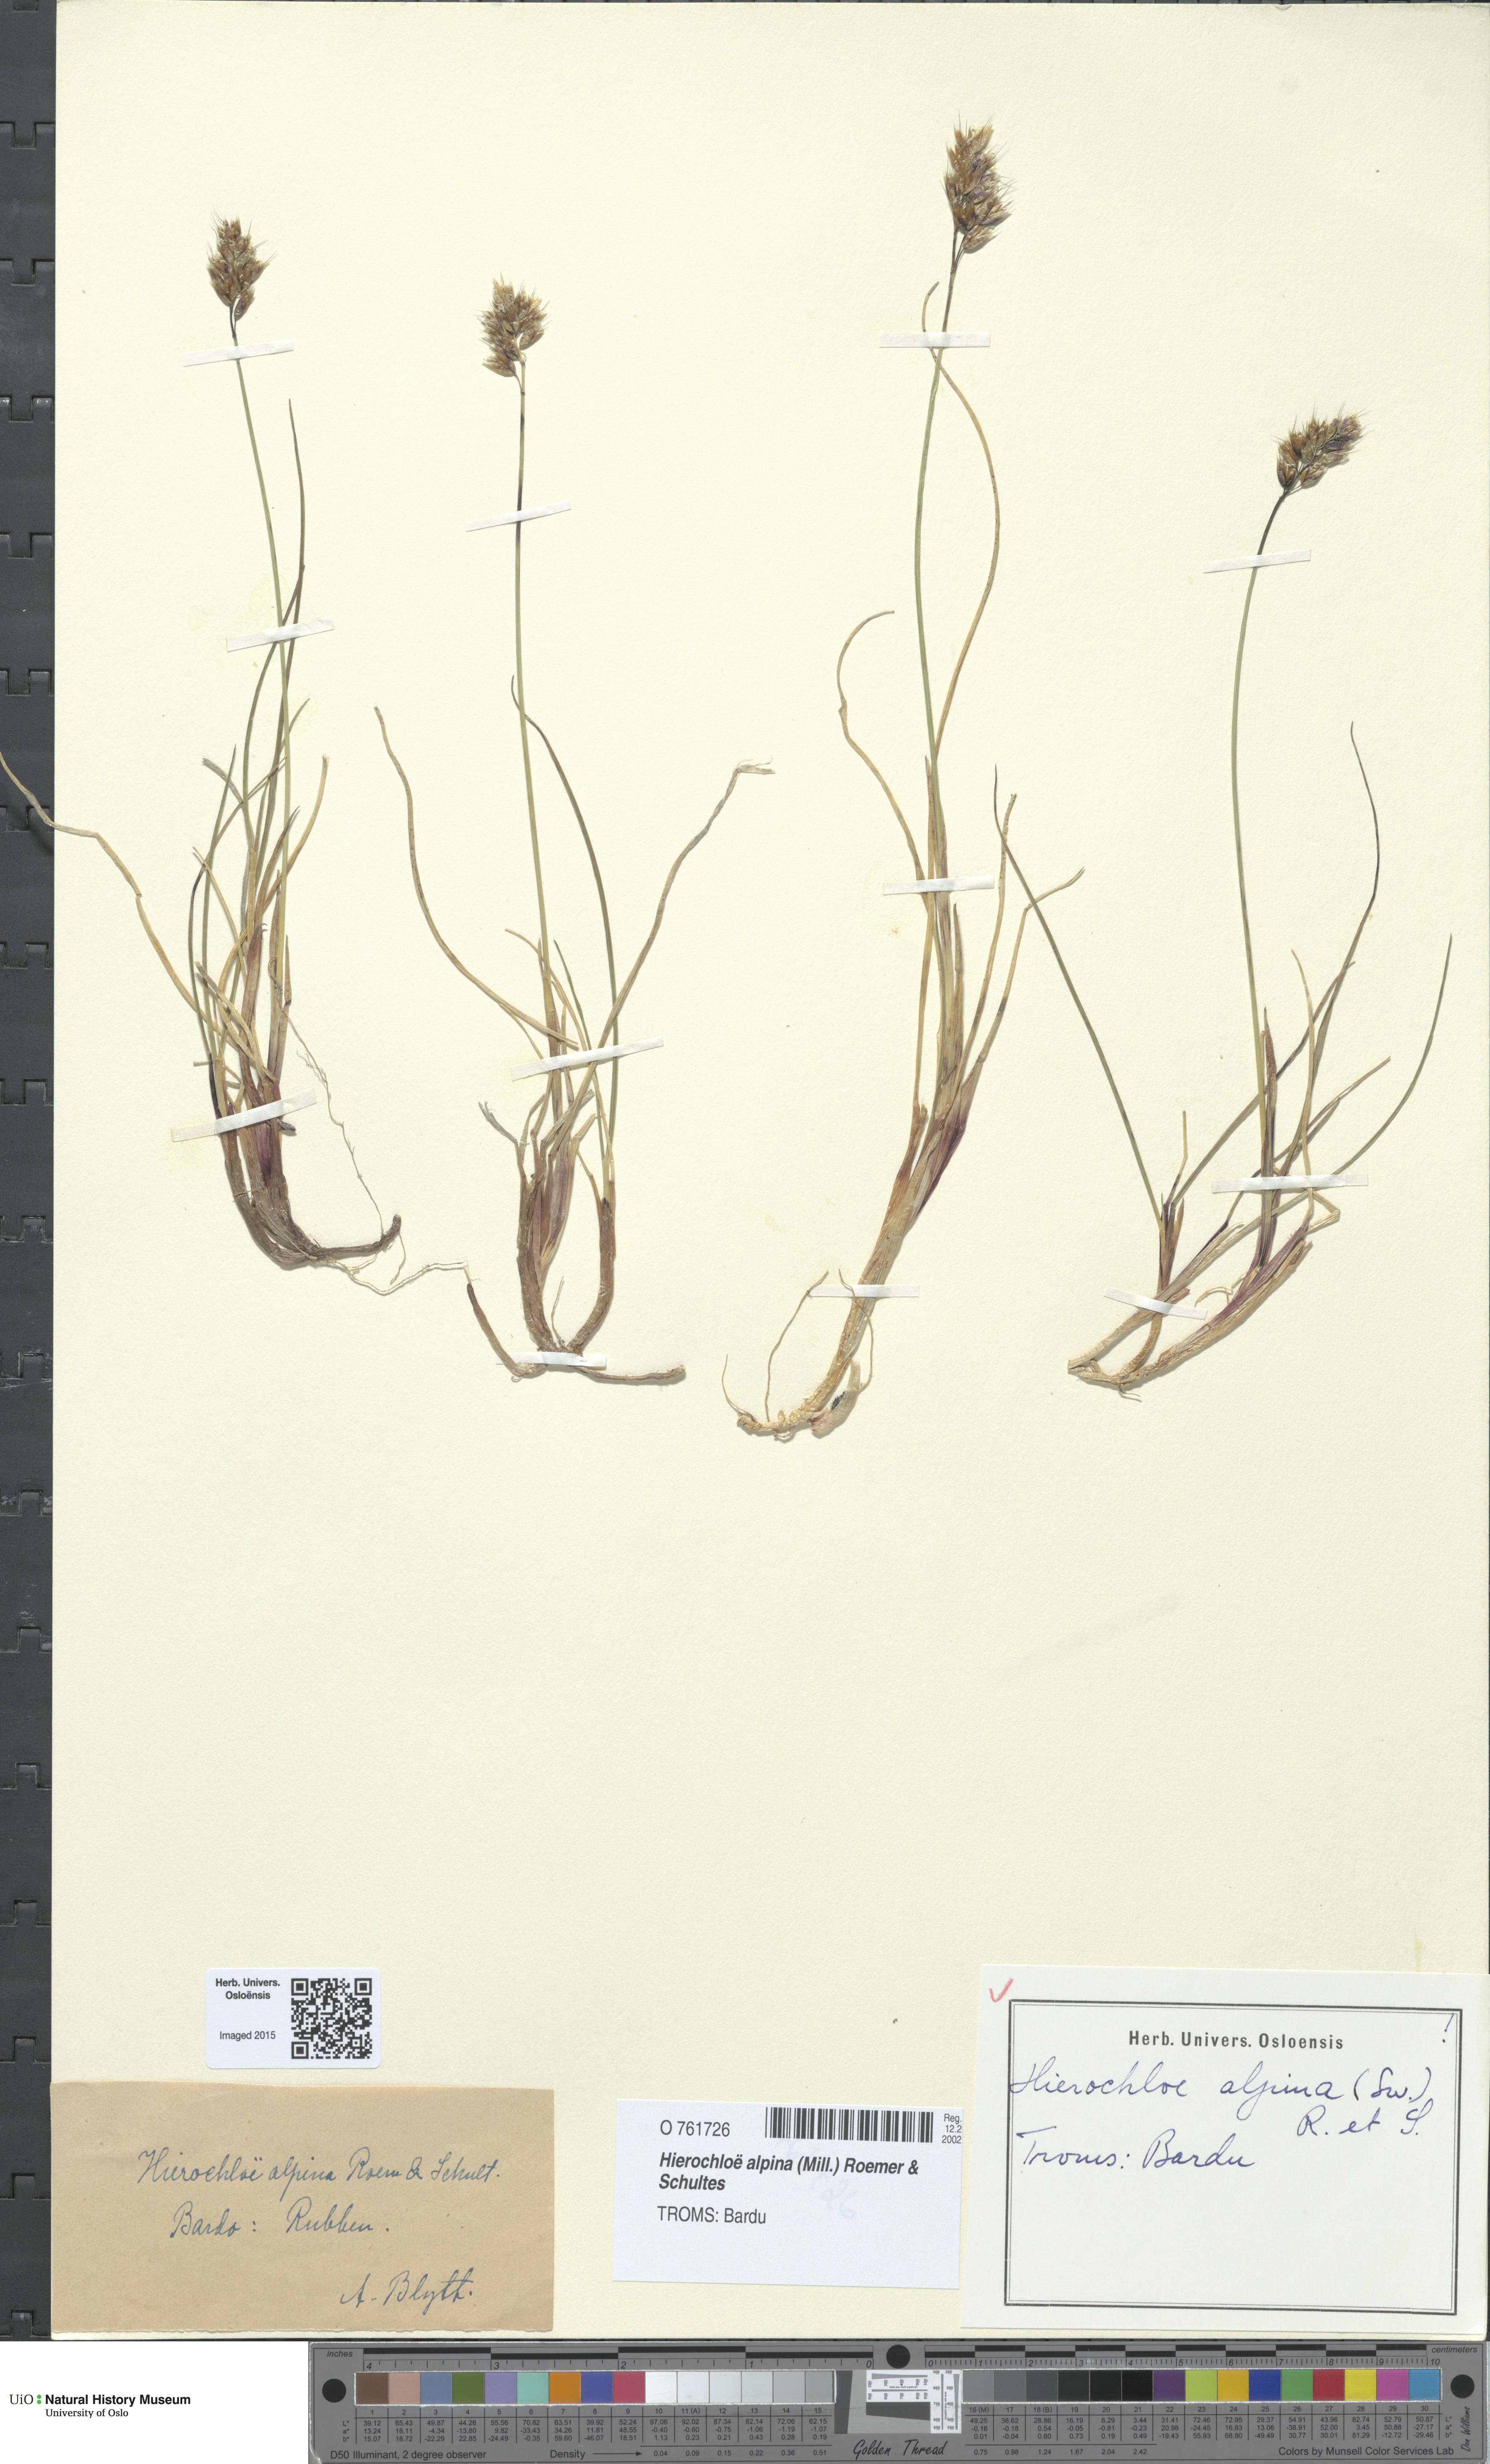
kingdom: Plantae
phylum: Tracheophyta
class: Liliopsida
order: Poales
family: Poaceae
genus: Anthoxanthum
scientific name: Anthoxanthum monticola
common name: Alpine sweetgrass
